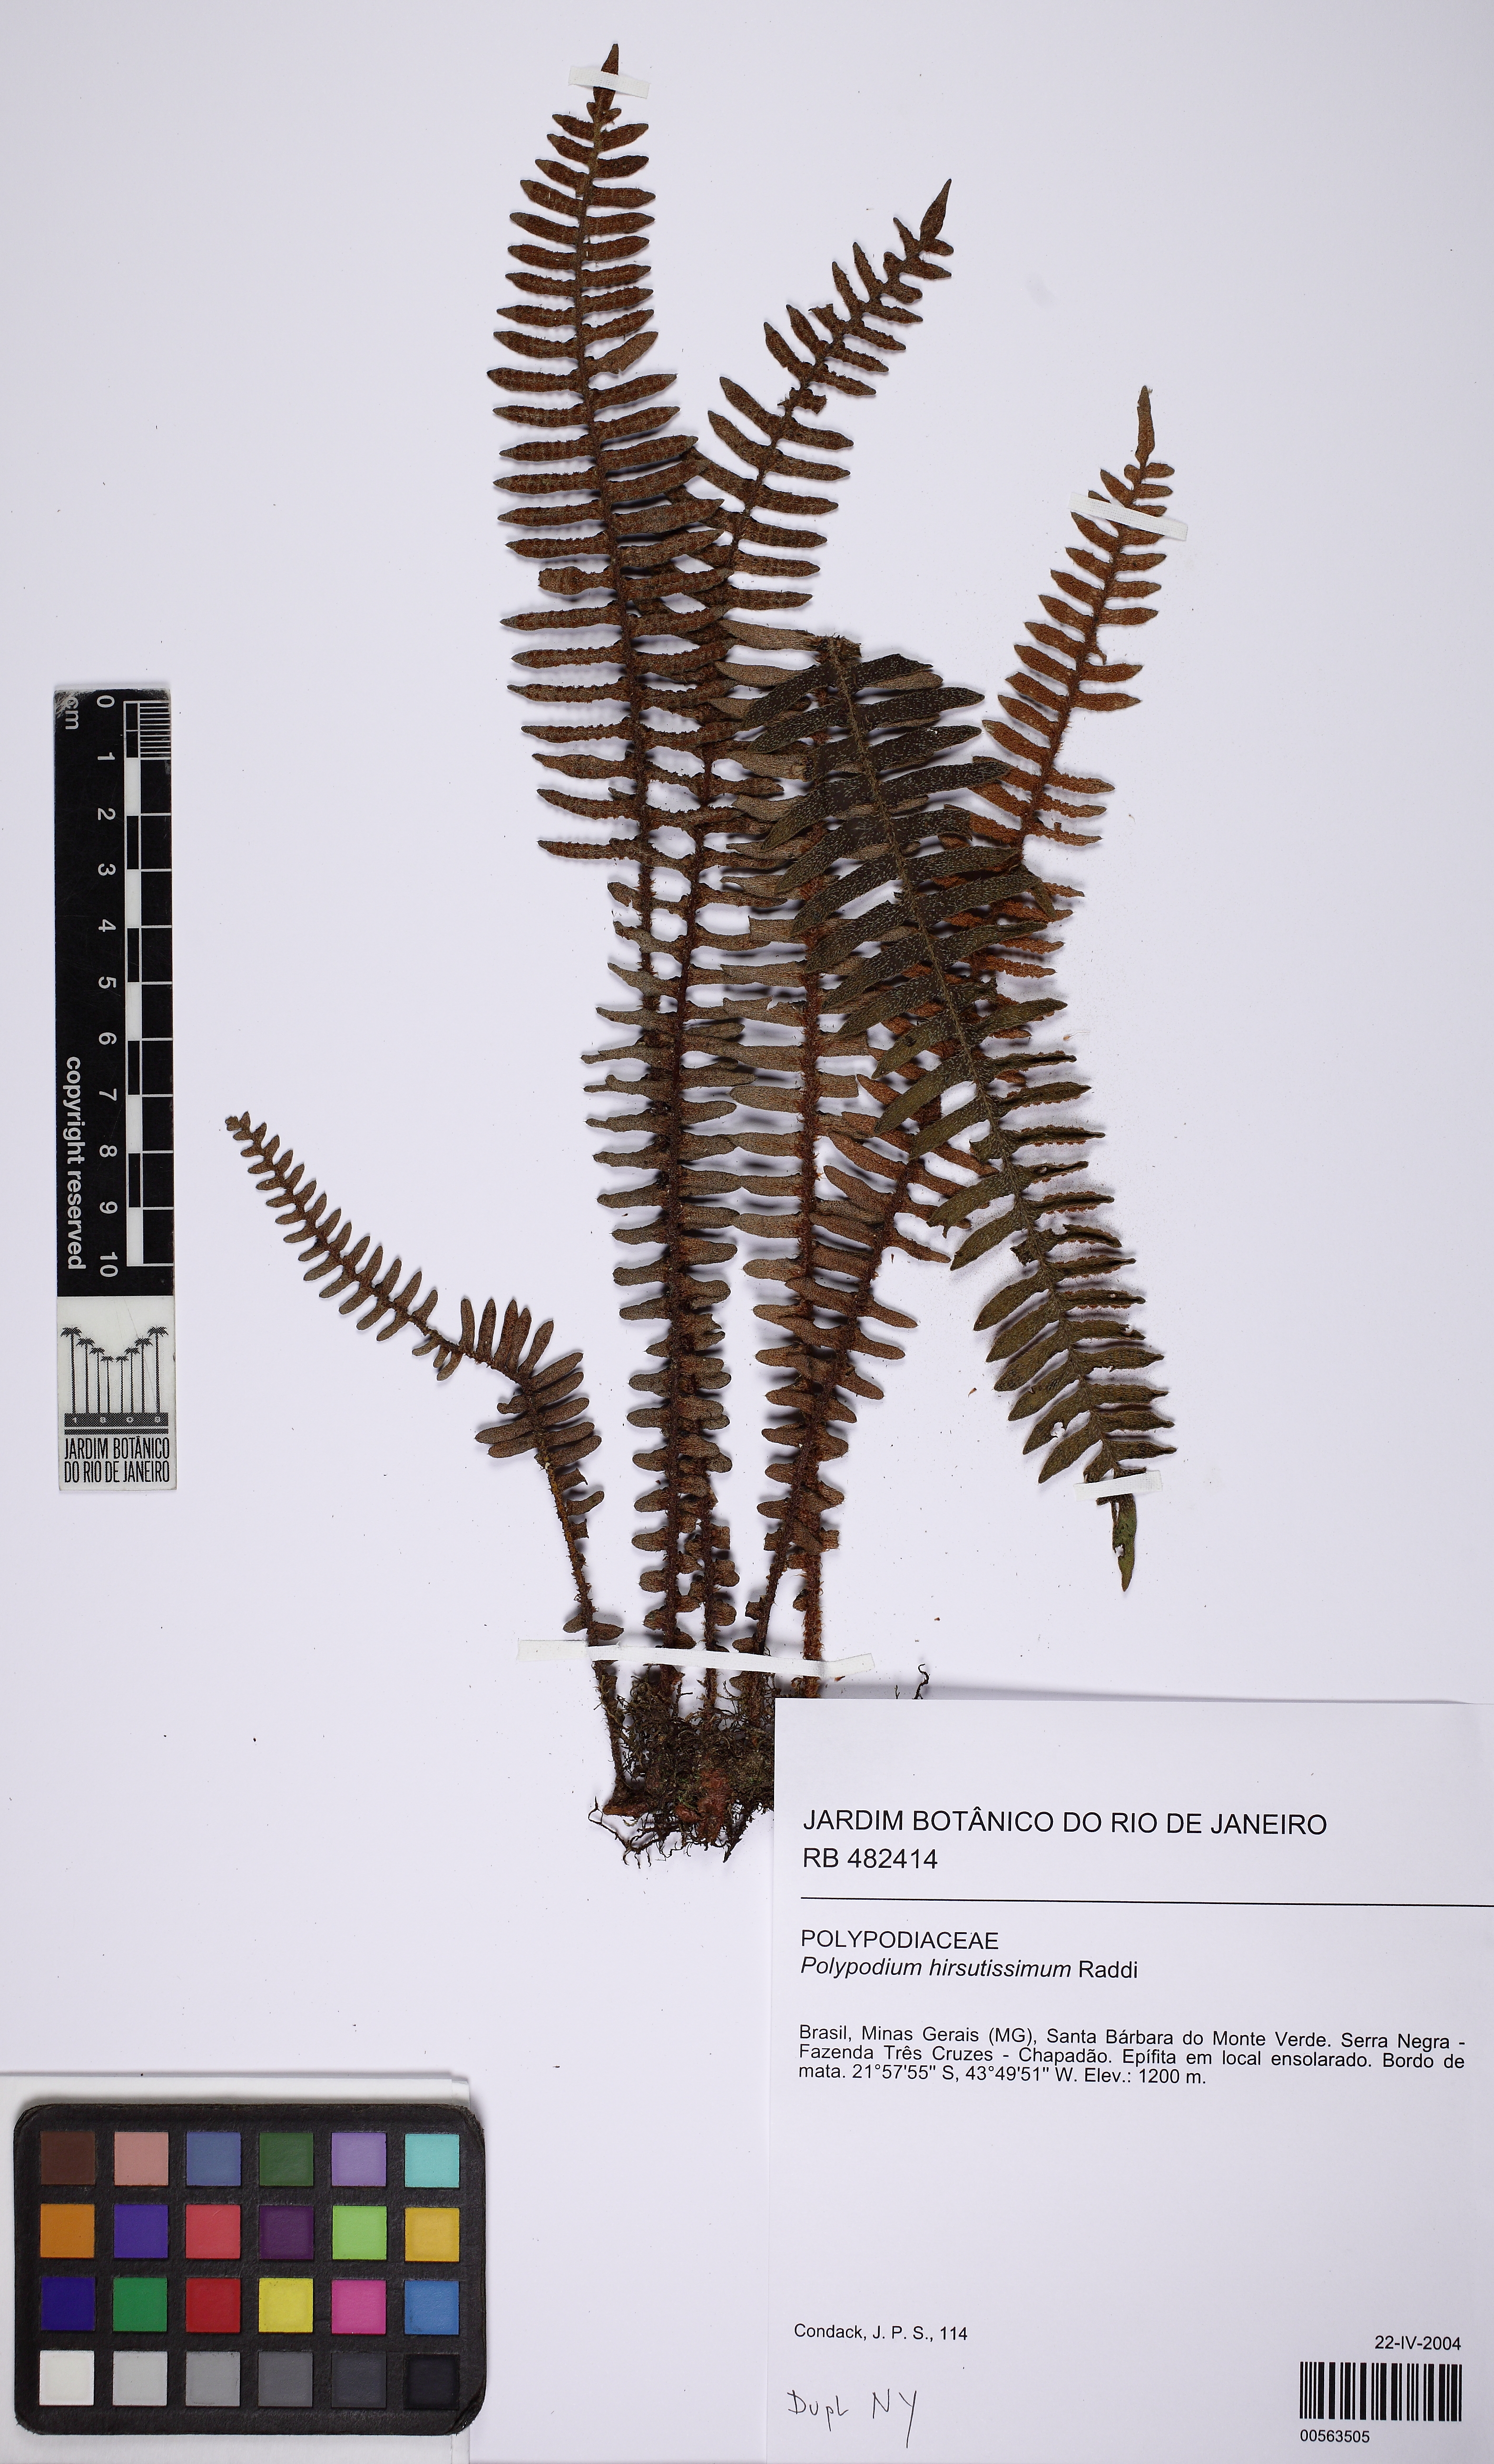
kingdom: Plantae
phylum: Tracheophyta
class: Polypodiopsida
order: Polypodiales
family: Polypodiaceae
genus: Pleopeltis
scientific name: Pleopeltis hirsutissima
